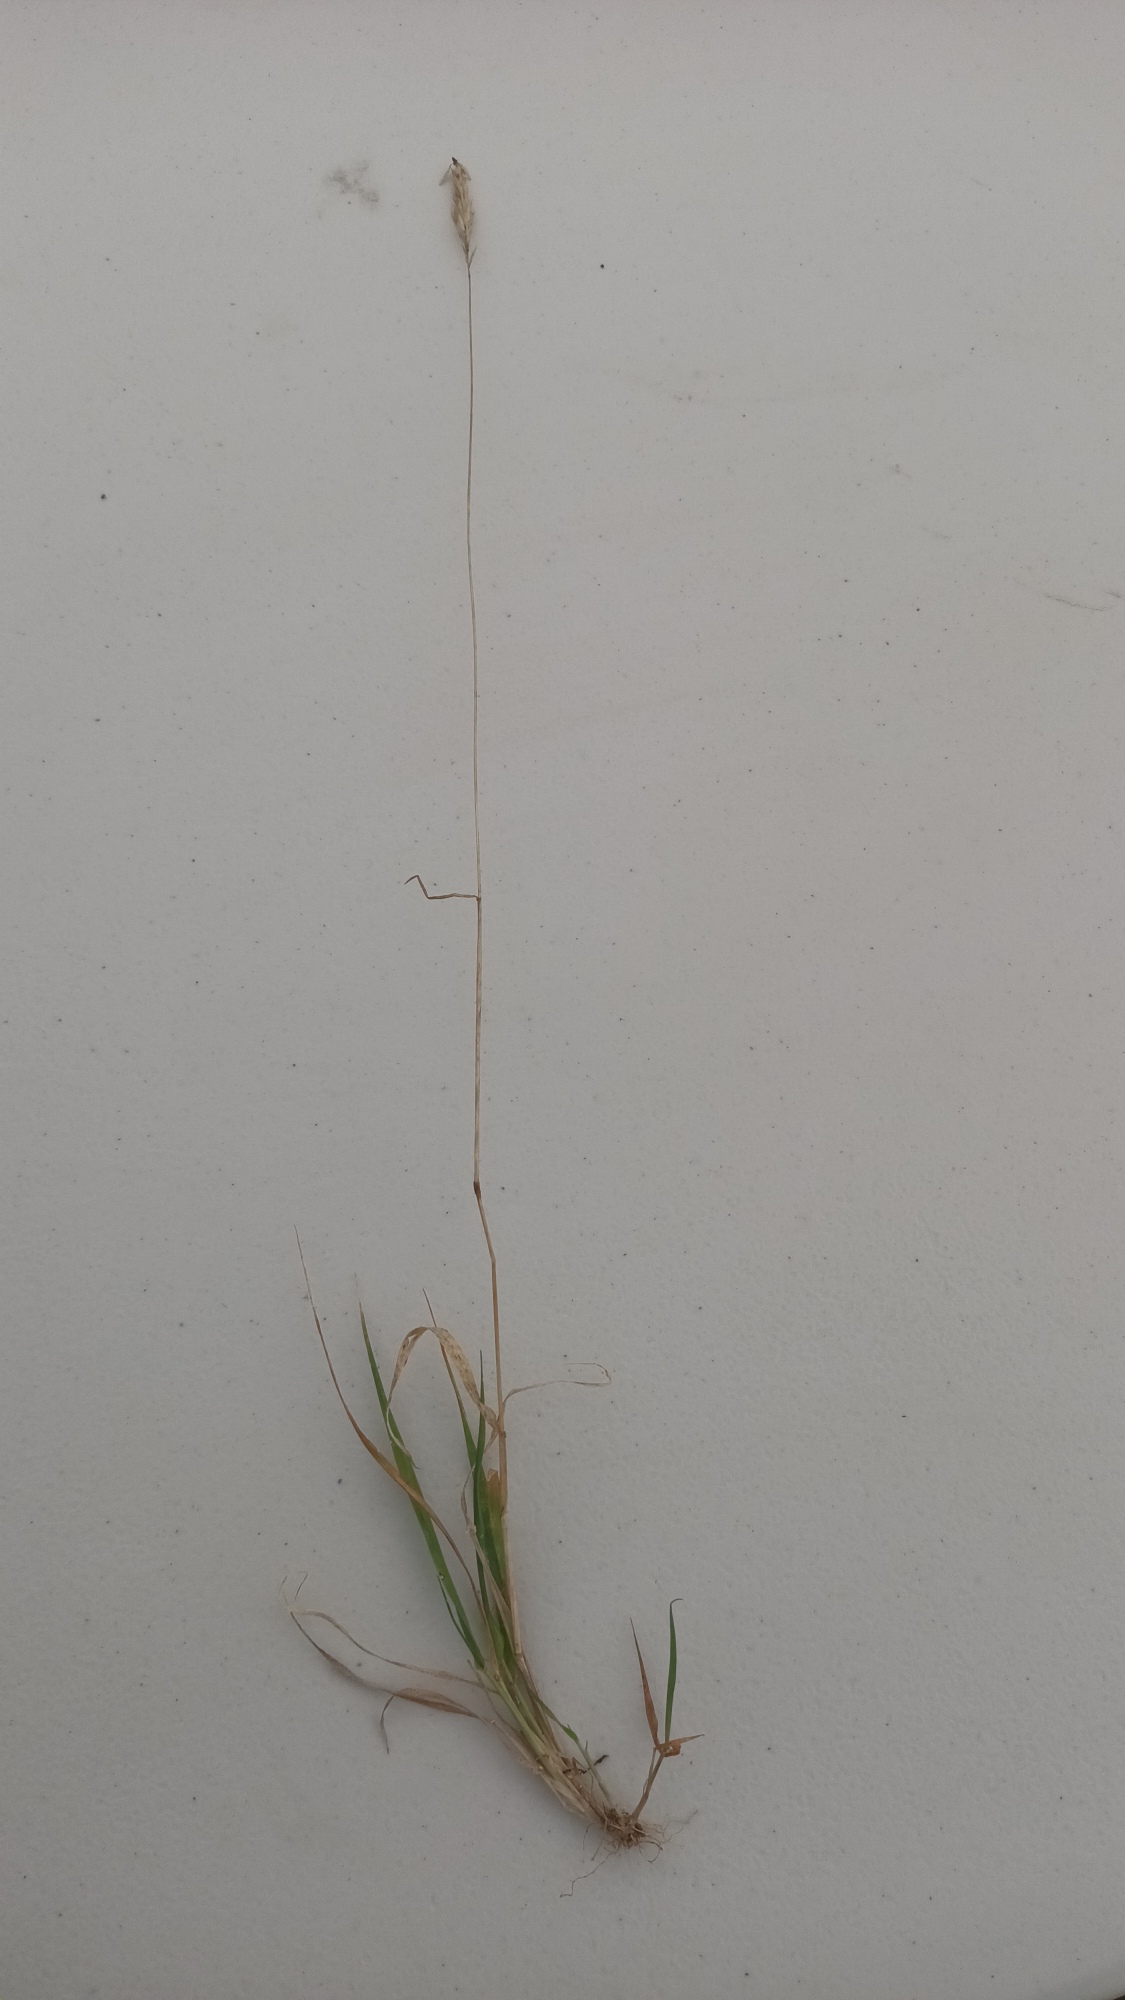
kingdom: Plantae
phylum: Tracheophyta
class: Liliopsida
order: Poales
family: Poaceae
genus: Anthoxanthum
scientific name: Anthoxanthum odoratum
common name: Vellugtende gulaks
